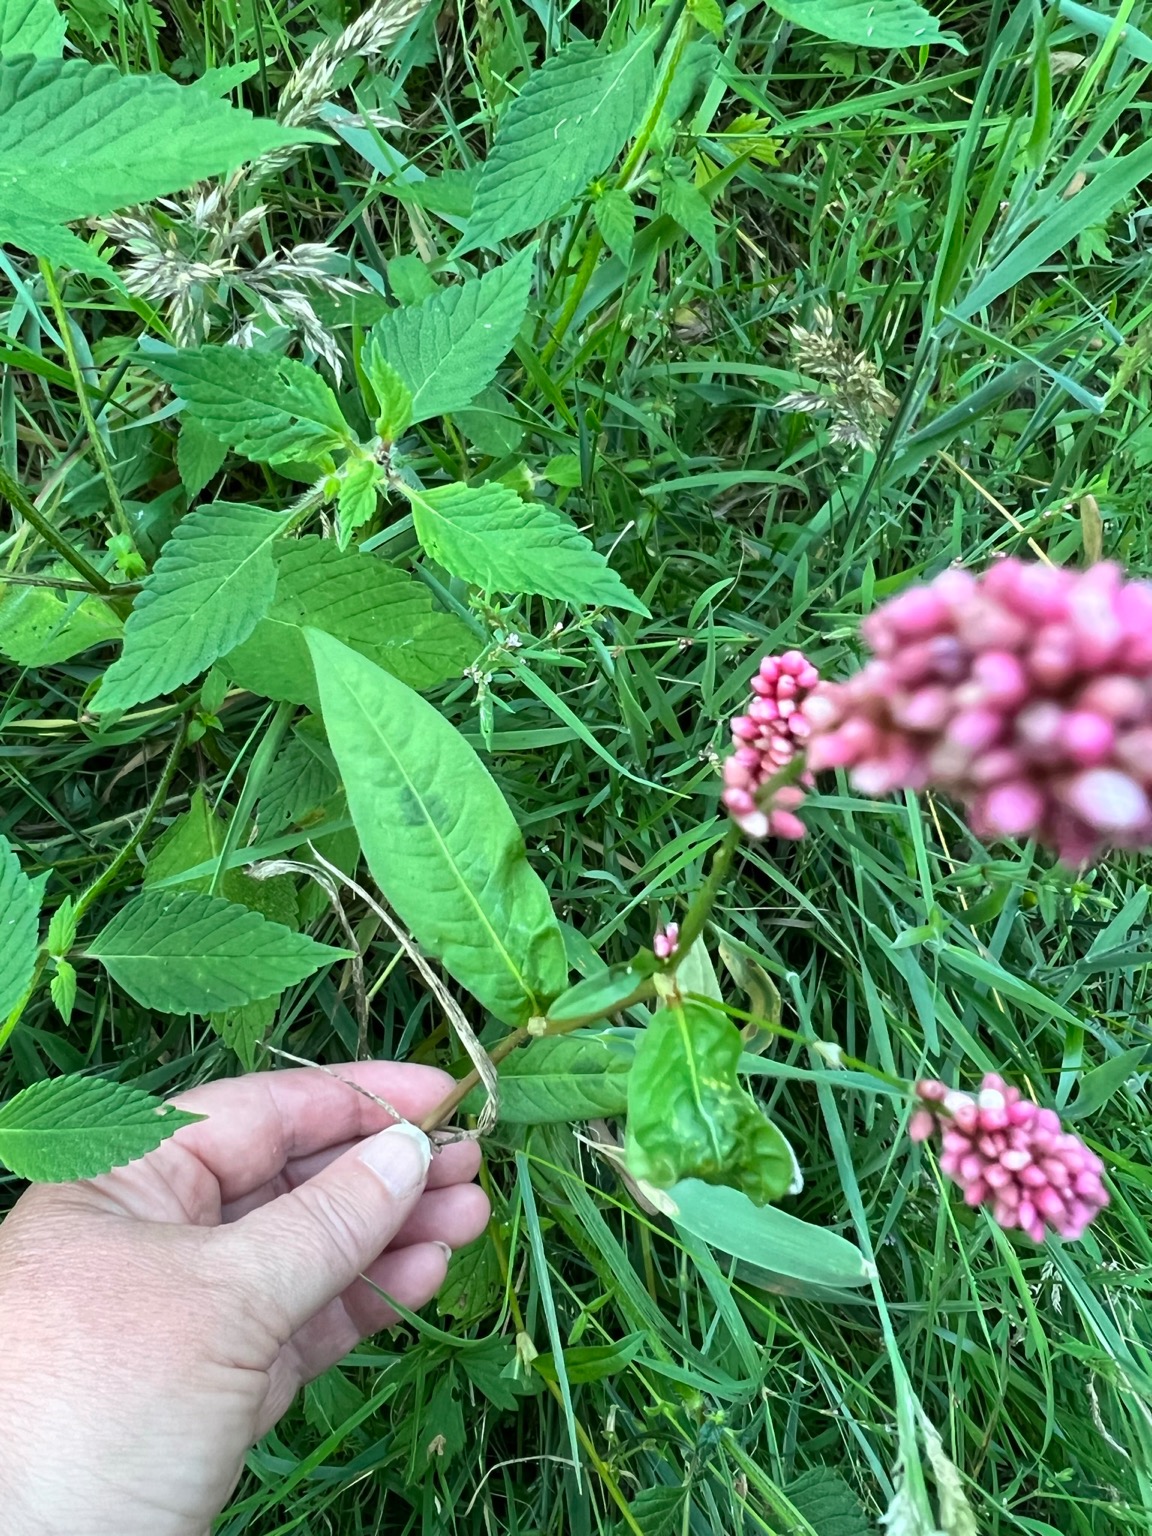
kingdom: Plantae
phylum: Tracheophyta
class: Magnoliopsida
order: Caryophyllales
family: Polygonaceae
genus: Persicaria
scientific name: Persicaria maculosa
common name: Fersken-pileurt
